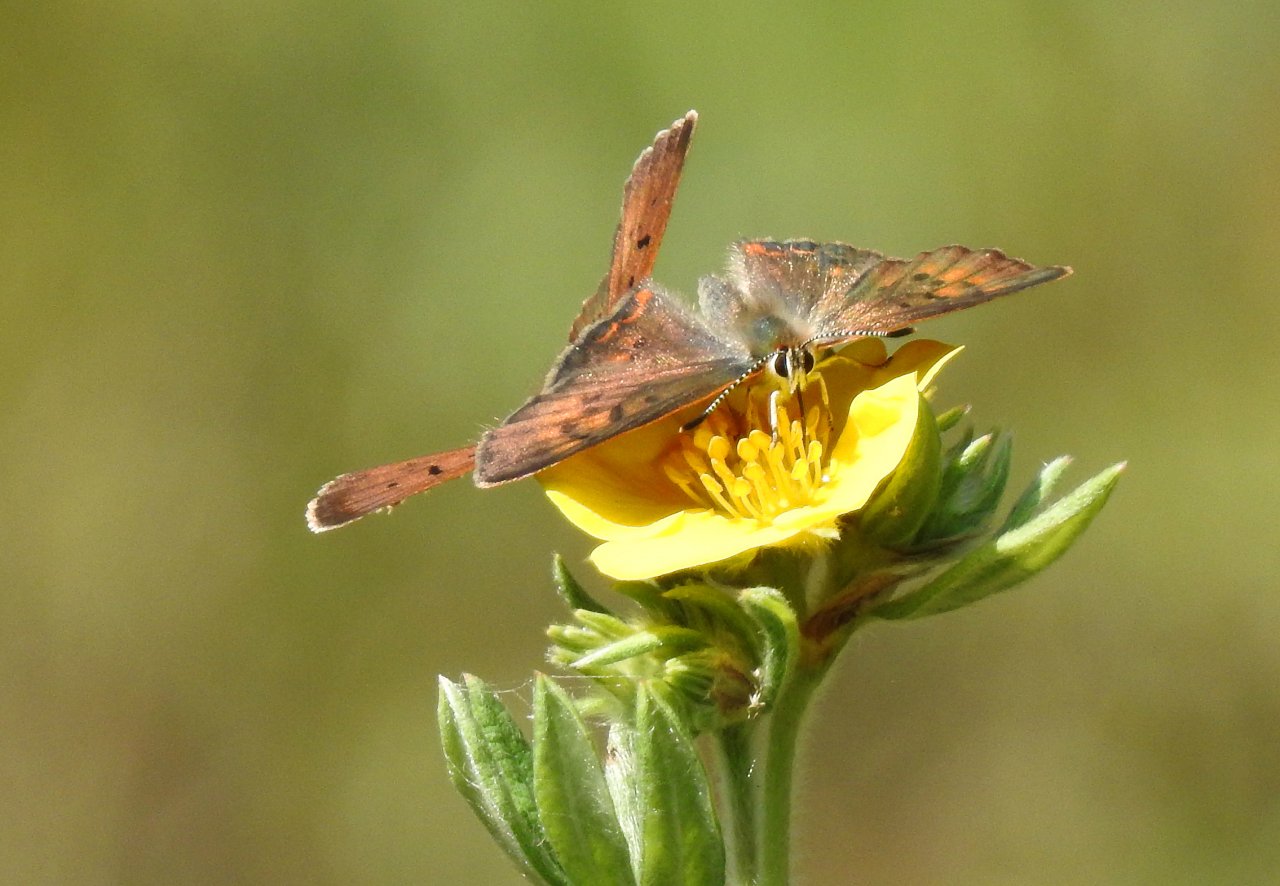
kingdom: Animalia
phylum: Arthropoda
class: Insecta
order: Lepidoptera
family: Lycaenidae
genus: Epidemia
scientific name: Epidemia dorcas
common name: Dorcas Copper
